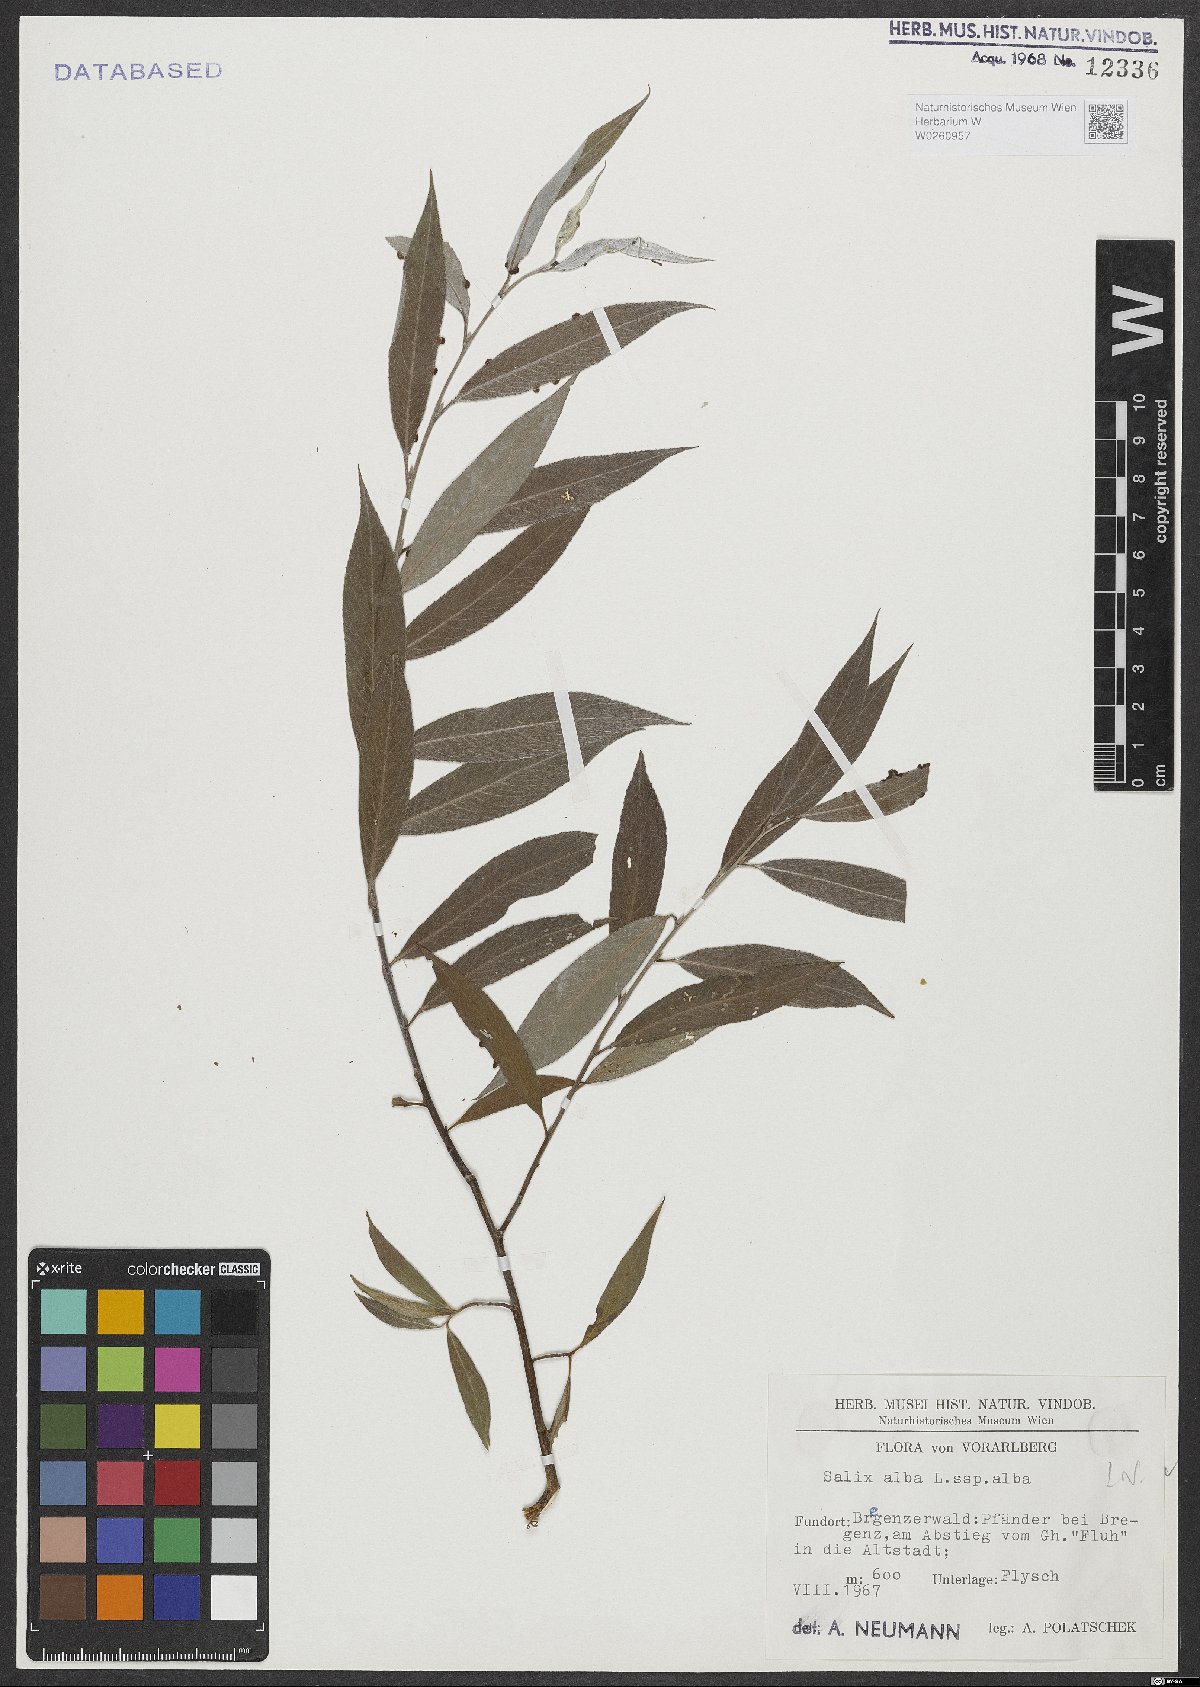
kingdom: Plantae
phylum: Tracheophyta
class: Magnoliopsida
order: Malpighiales
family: Salicaceae
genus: Salix
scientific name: Salix alba
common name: White willow
